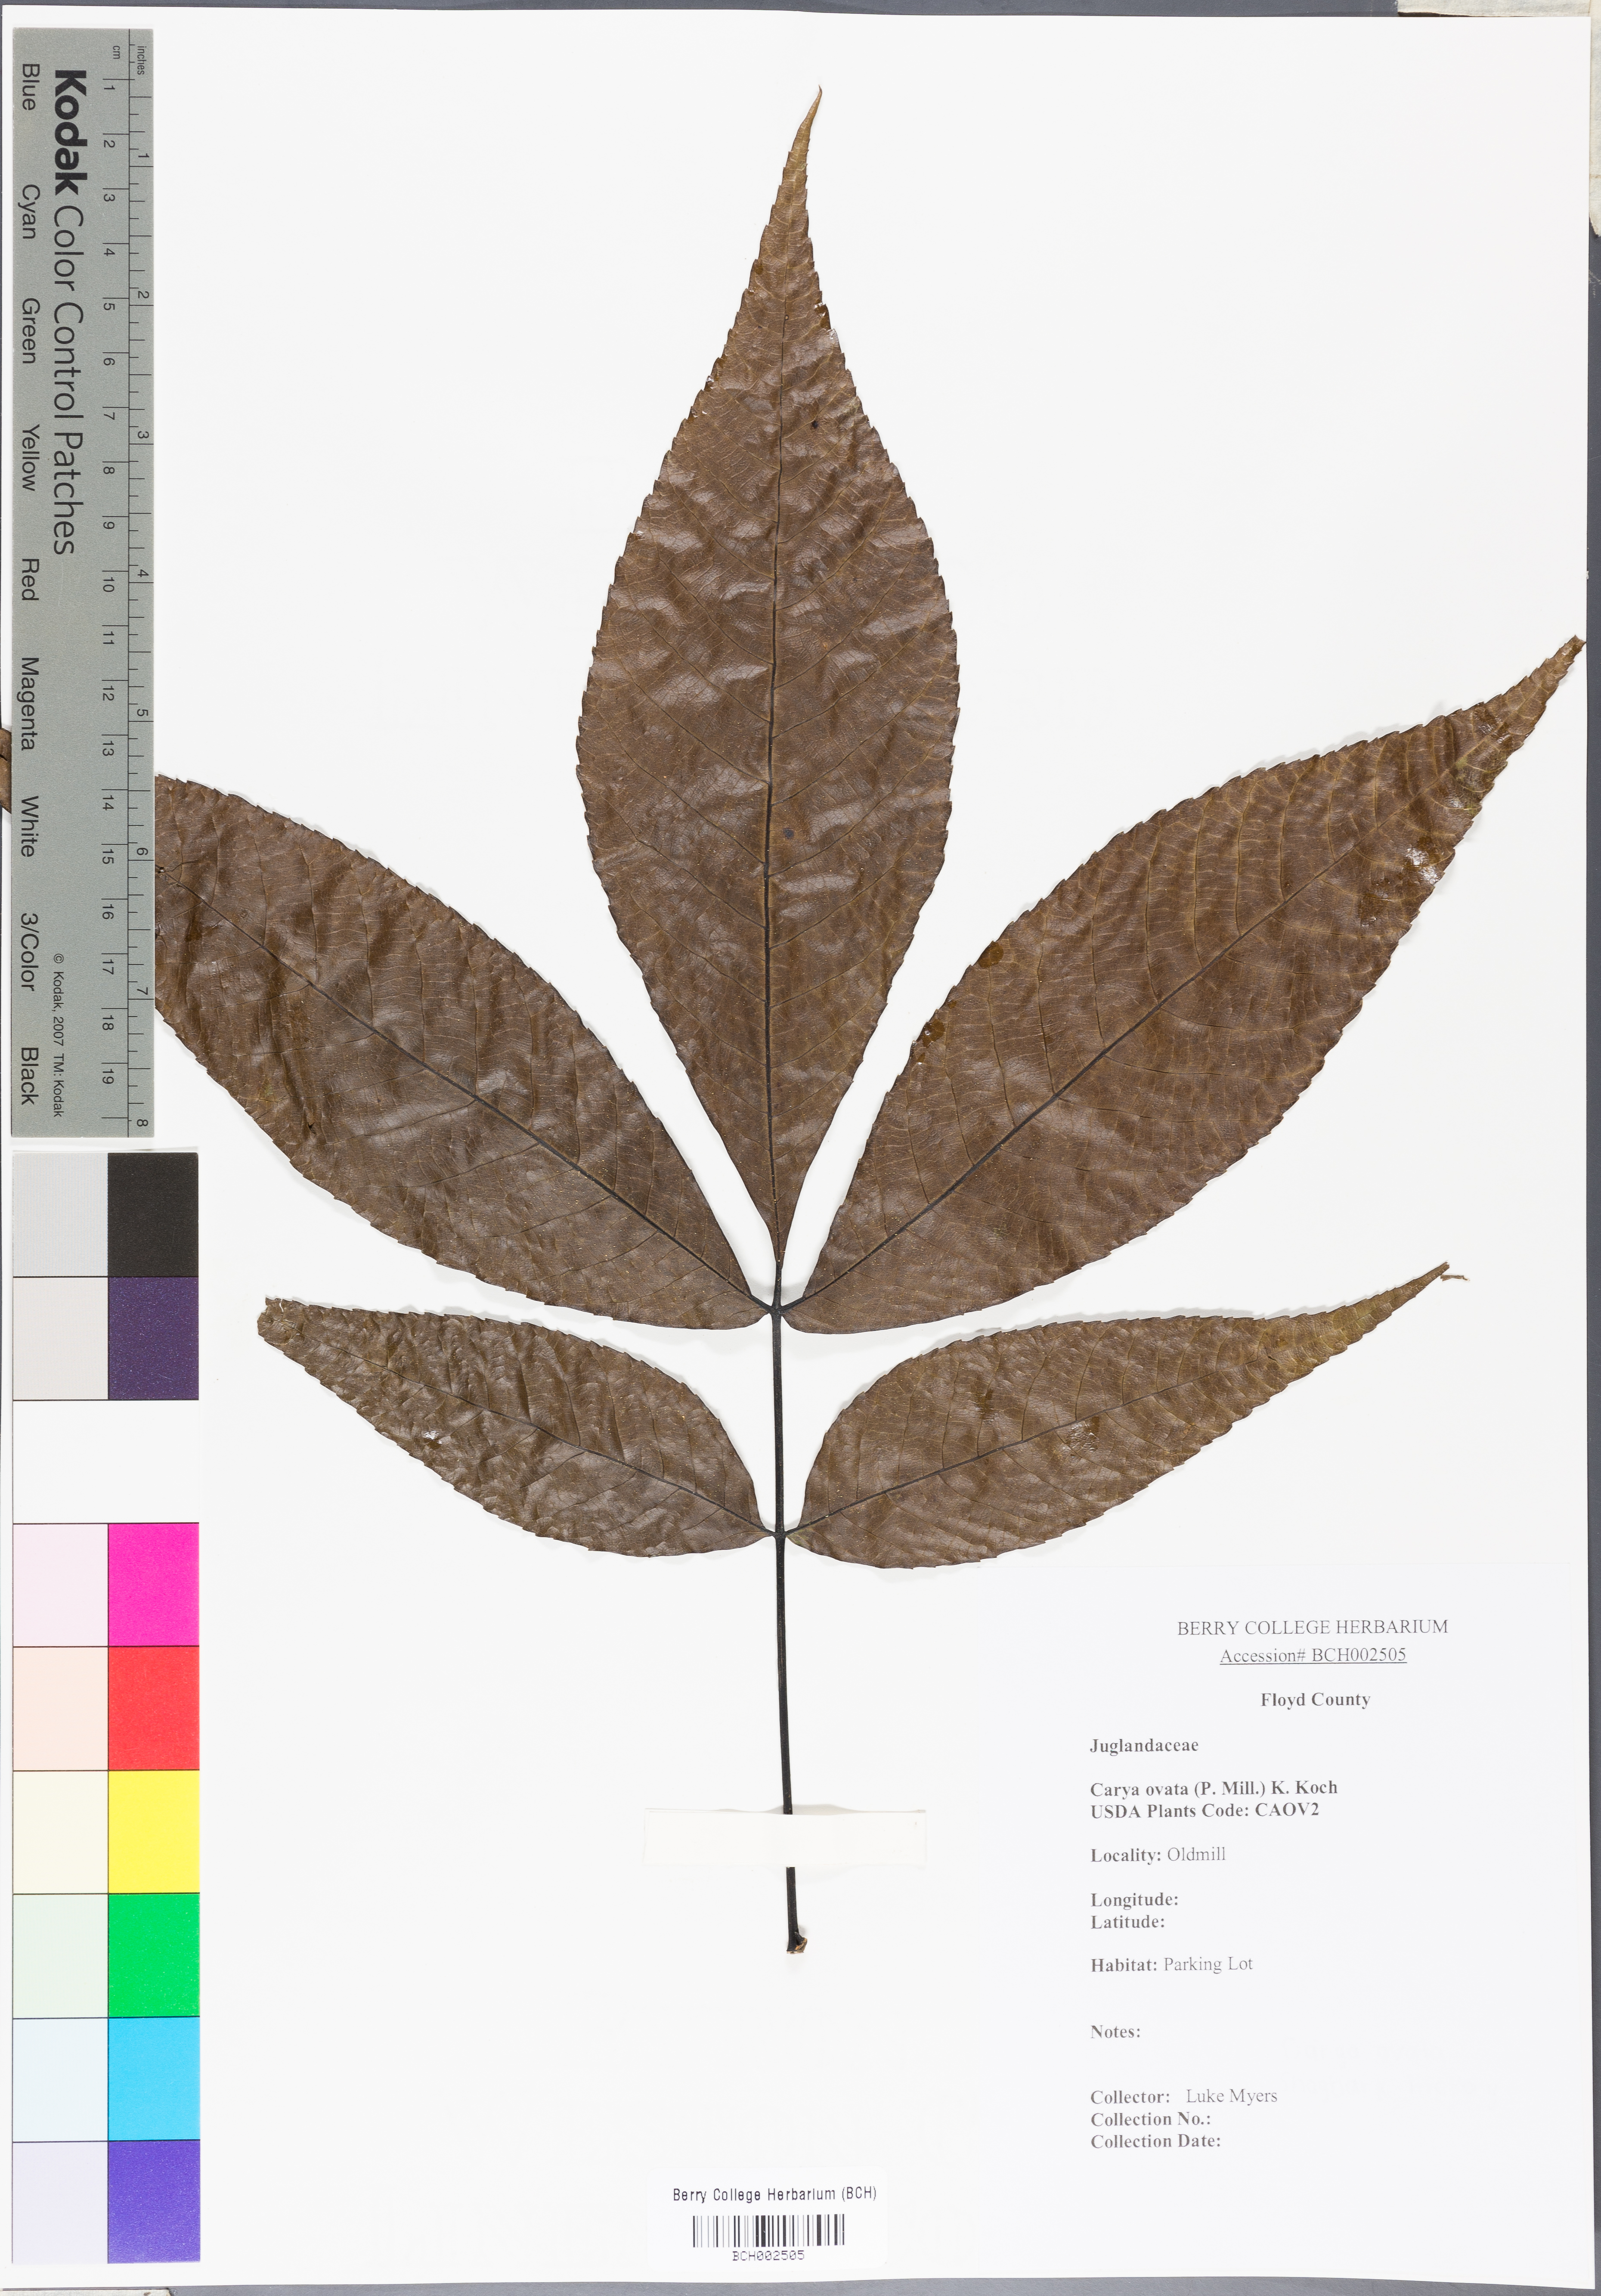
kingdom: Plantae
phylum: Tracheophyta
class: Magnoliopsida
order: Fagales
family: Juglandaceae
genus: Carya
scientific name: Carya ovata
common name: Shagbark hickory
